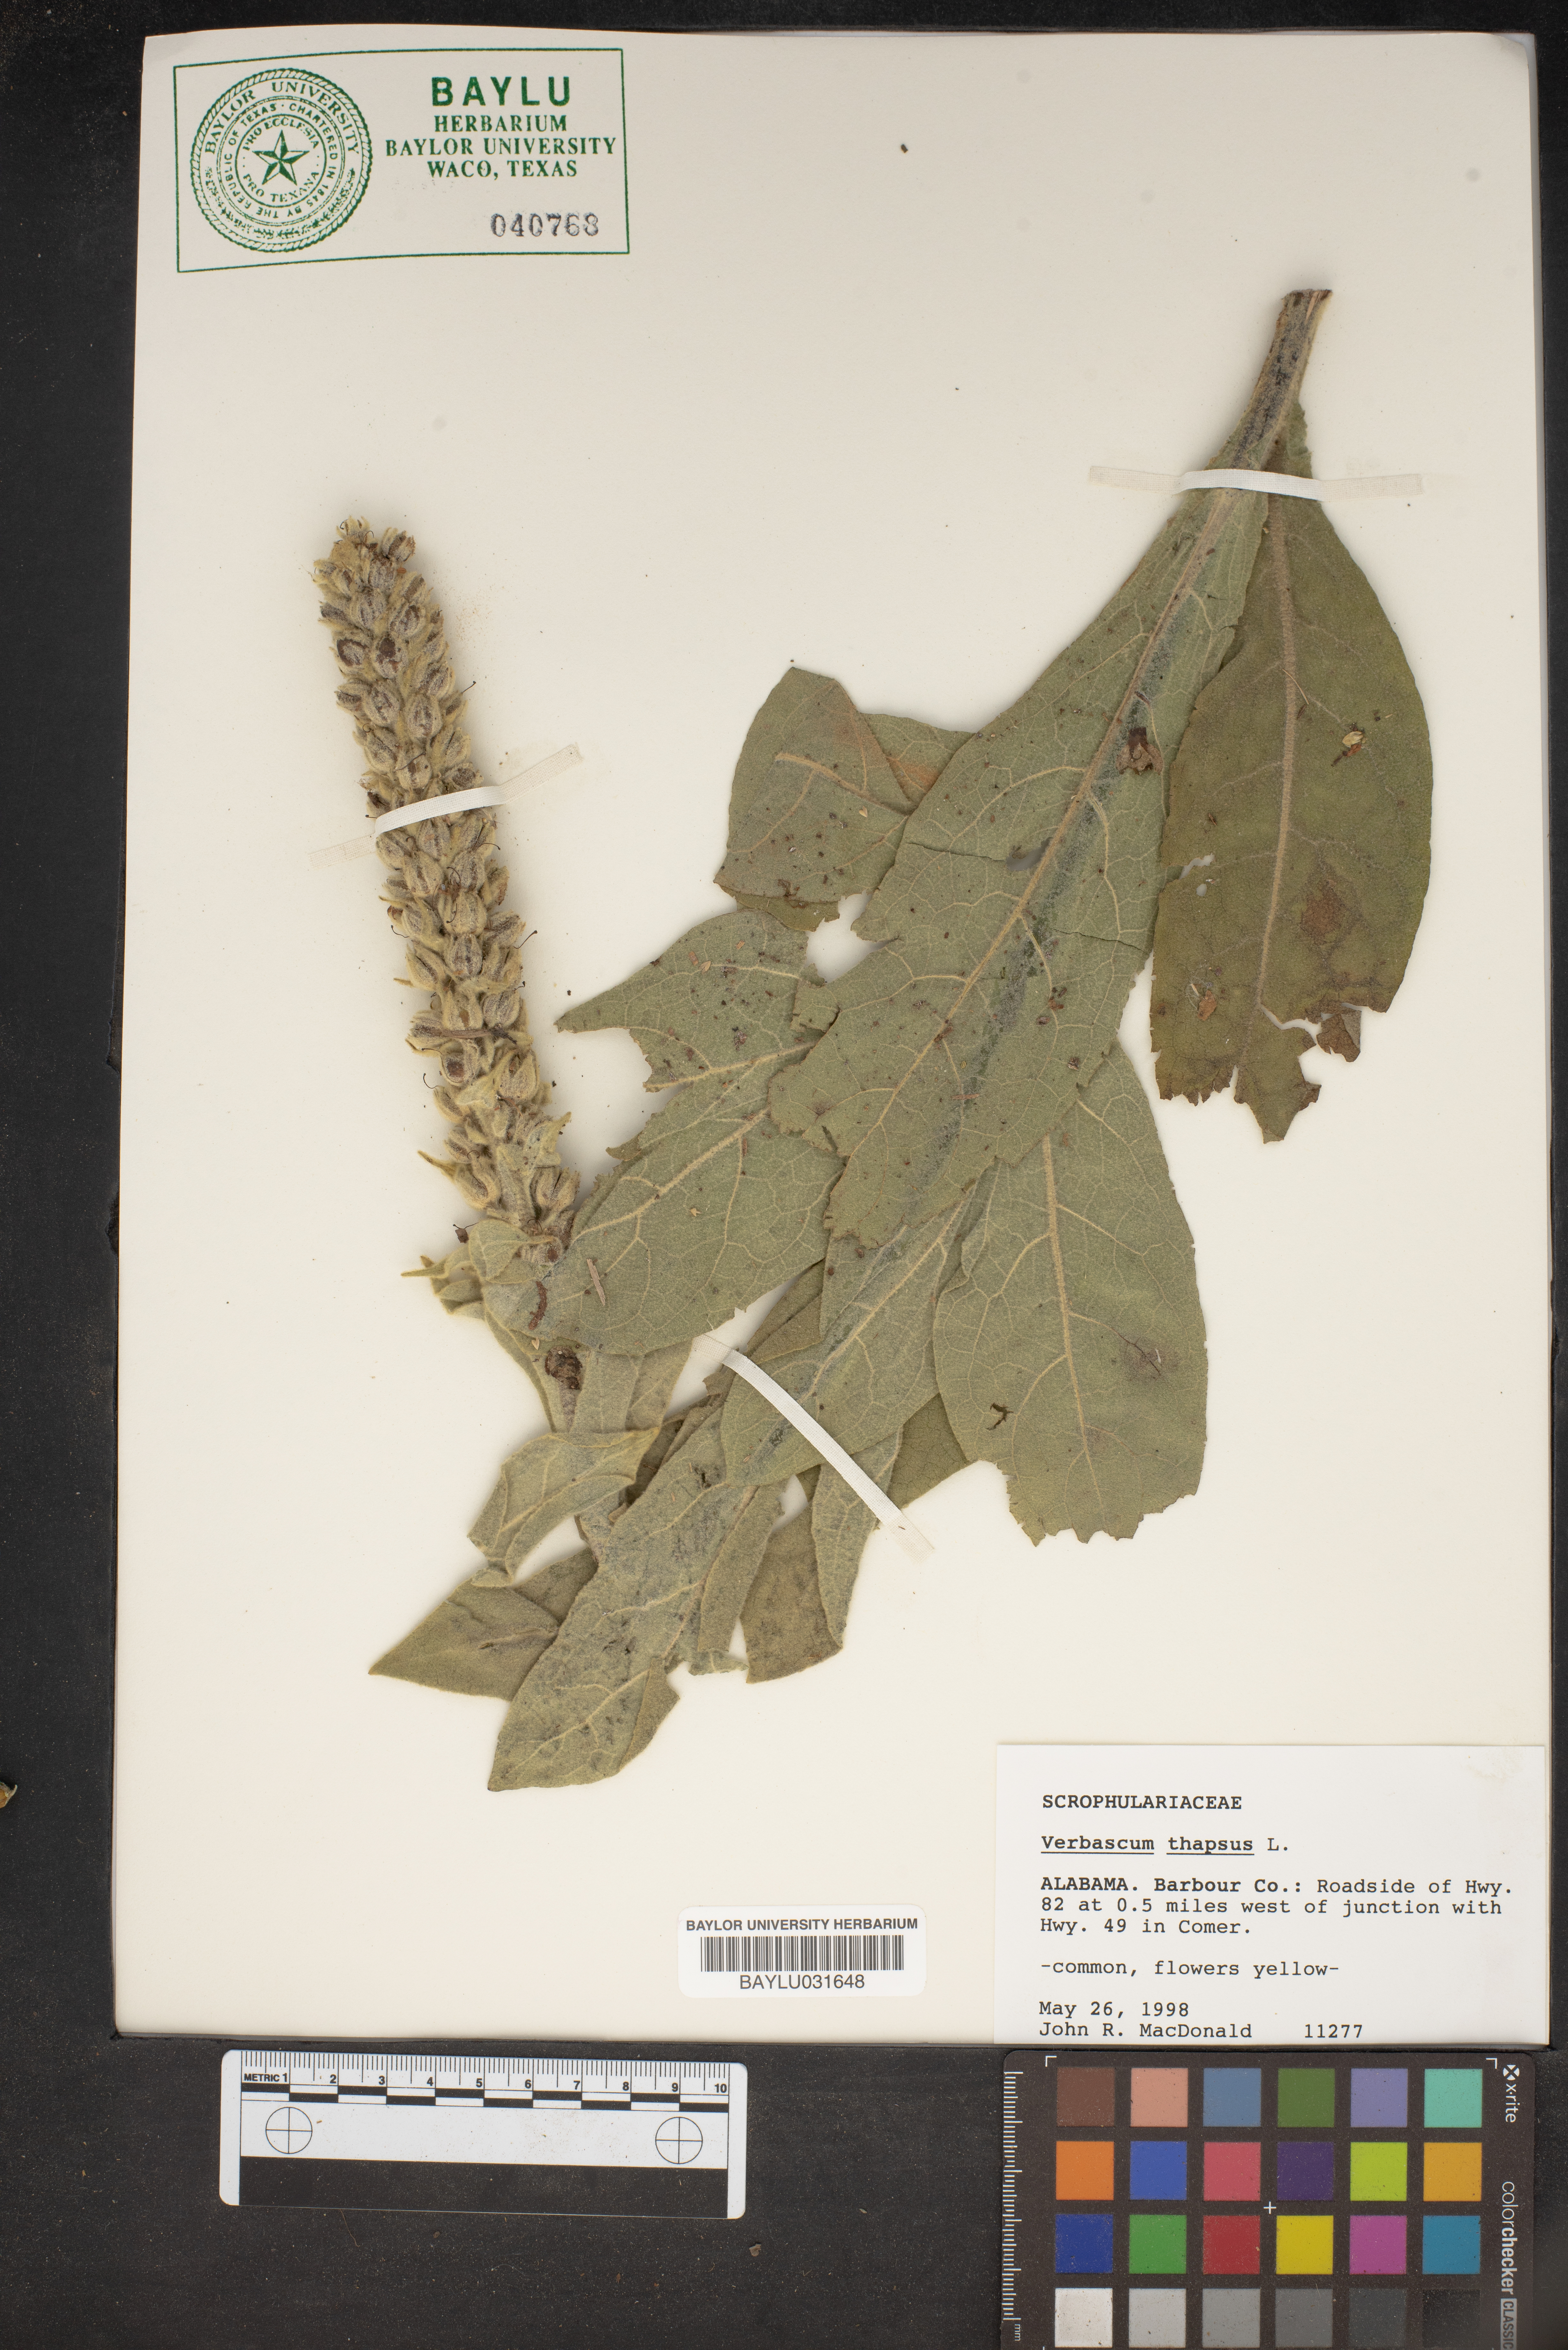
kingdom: Plantae
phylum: Tracheophyta
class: Magnoliopsida
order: Lamiales
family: Scrophulariaceae
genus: Verbascum
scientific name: Verbascum thapsus
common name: Common mullein
